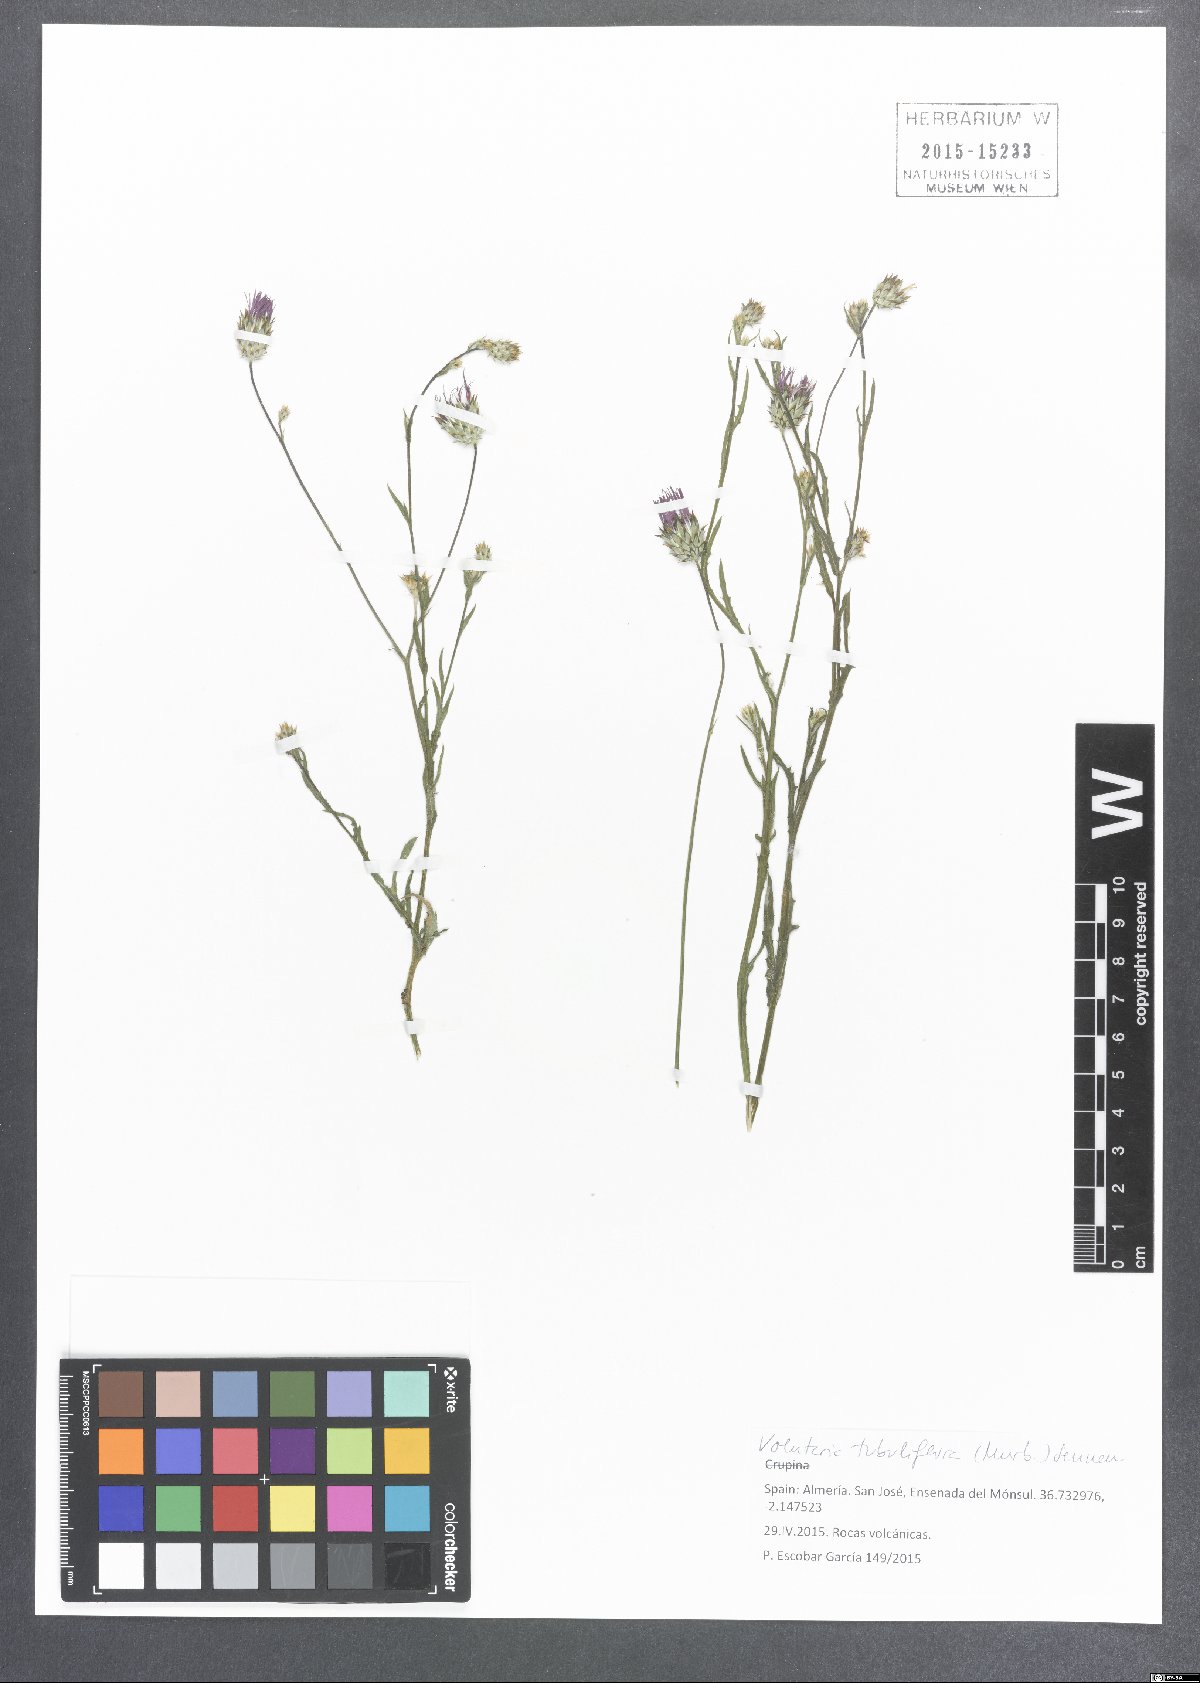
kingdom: Plantae
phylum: Tracheophyta
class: Magnoliopsida
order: Asterales
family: Asteraceae
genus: Volutaria
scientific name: Volutaria tubuliflora
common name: Desert knapweed
